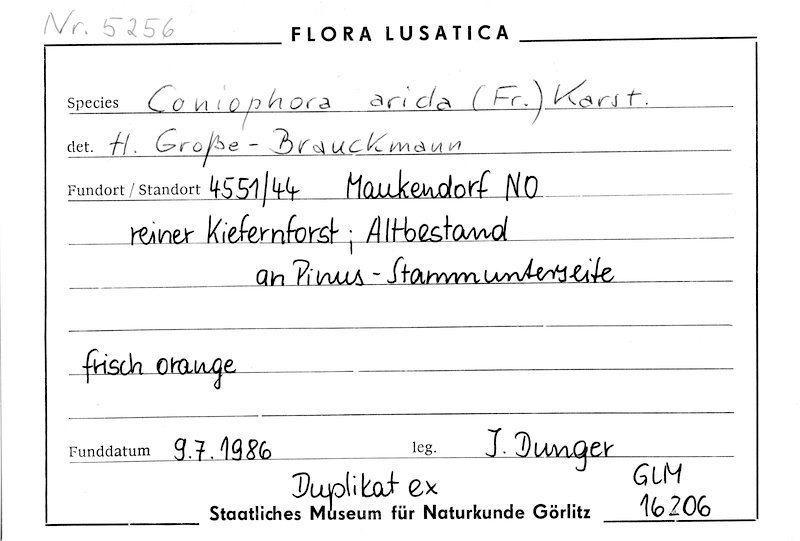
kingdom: Plantae
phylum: Tracheophyta
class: Pinopsida
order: Pinales
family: Pinaceae
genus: Pinus
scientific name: Pinus
